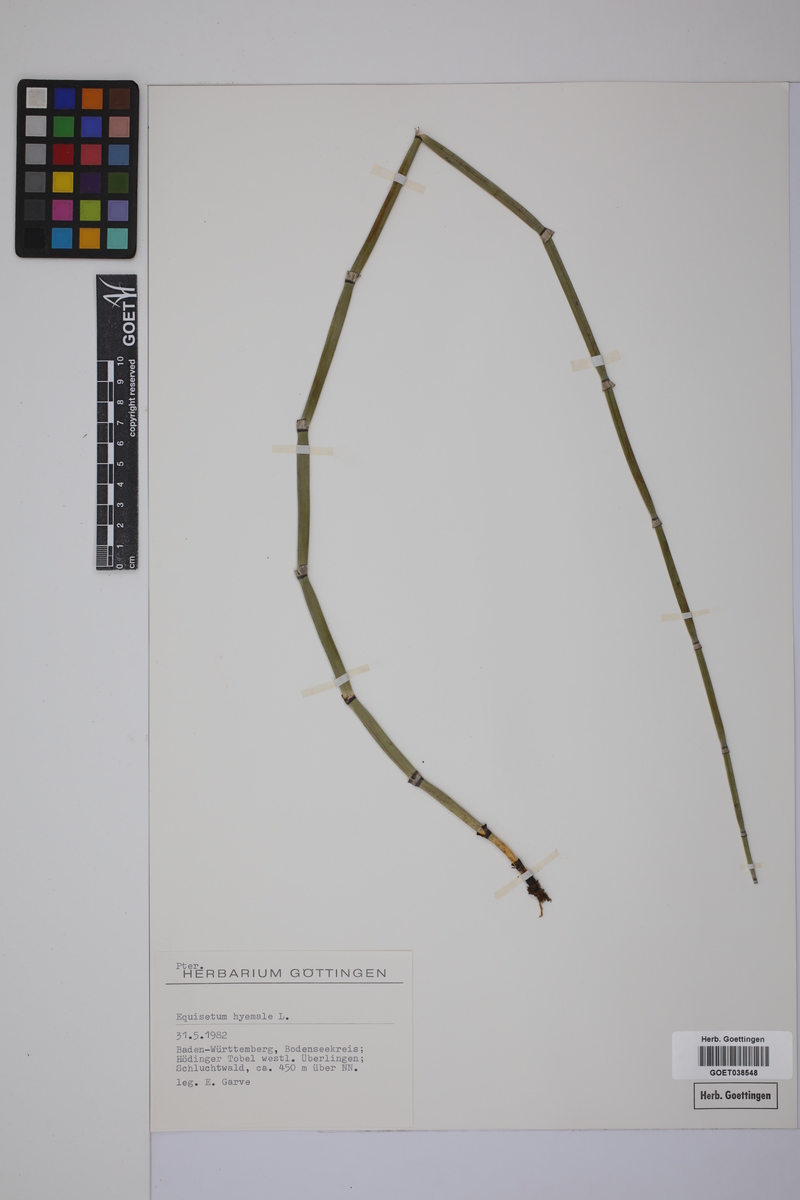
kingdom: Plantae
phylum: Tracheophyta
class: Polypodiopsida
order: Equisetales
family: Equisetaceae
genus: Equisetum
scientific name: Equisetum hyemale
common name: Rough horsetail
